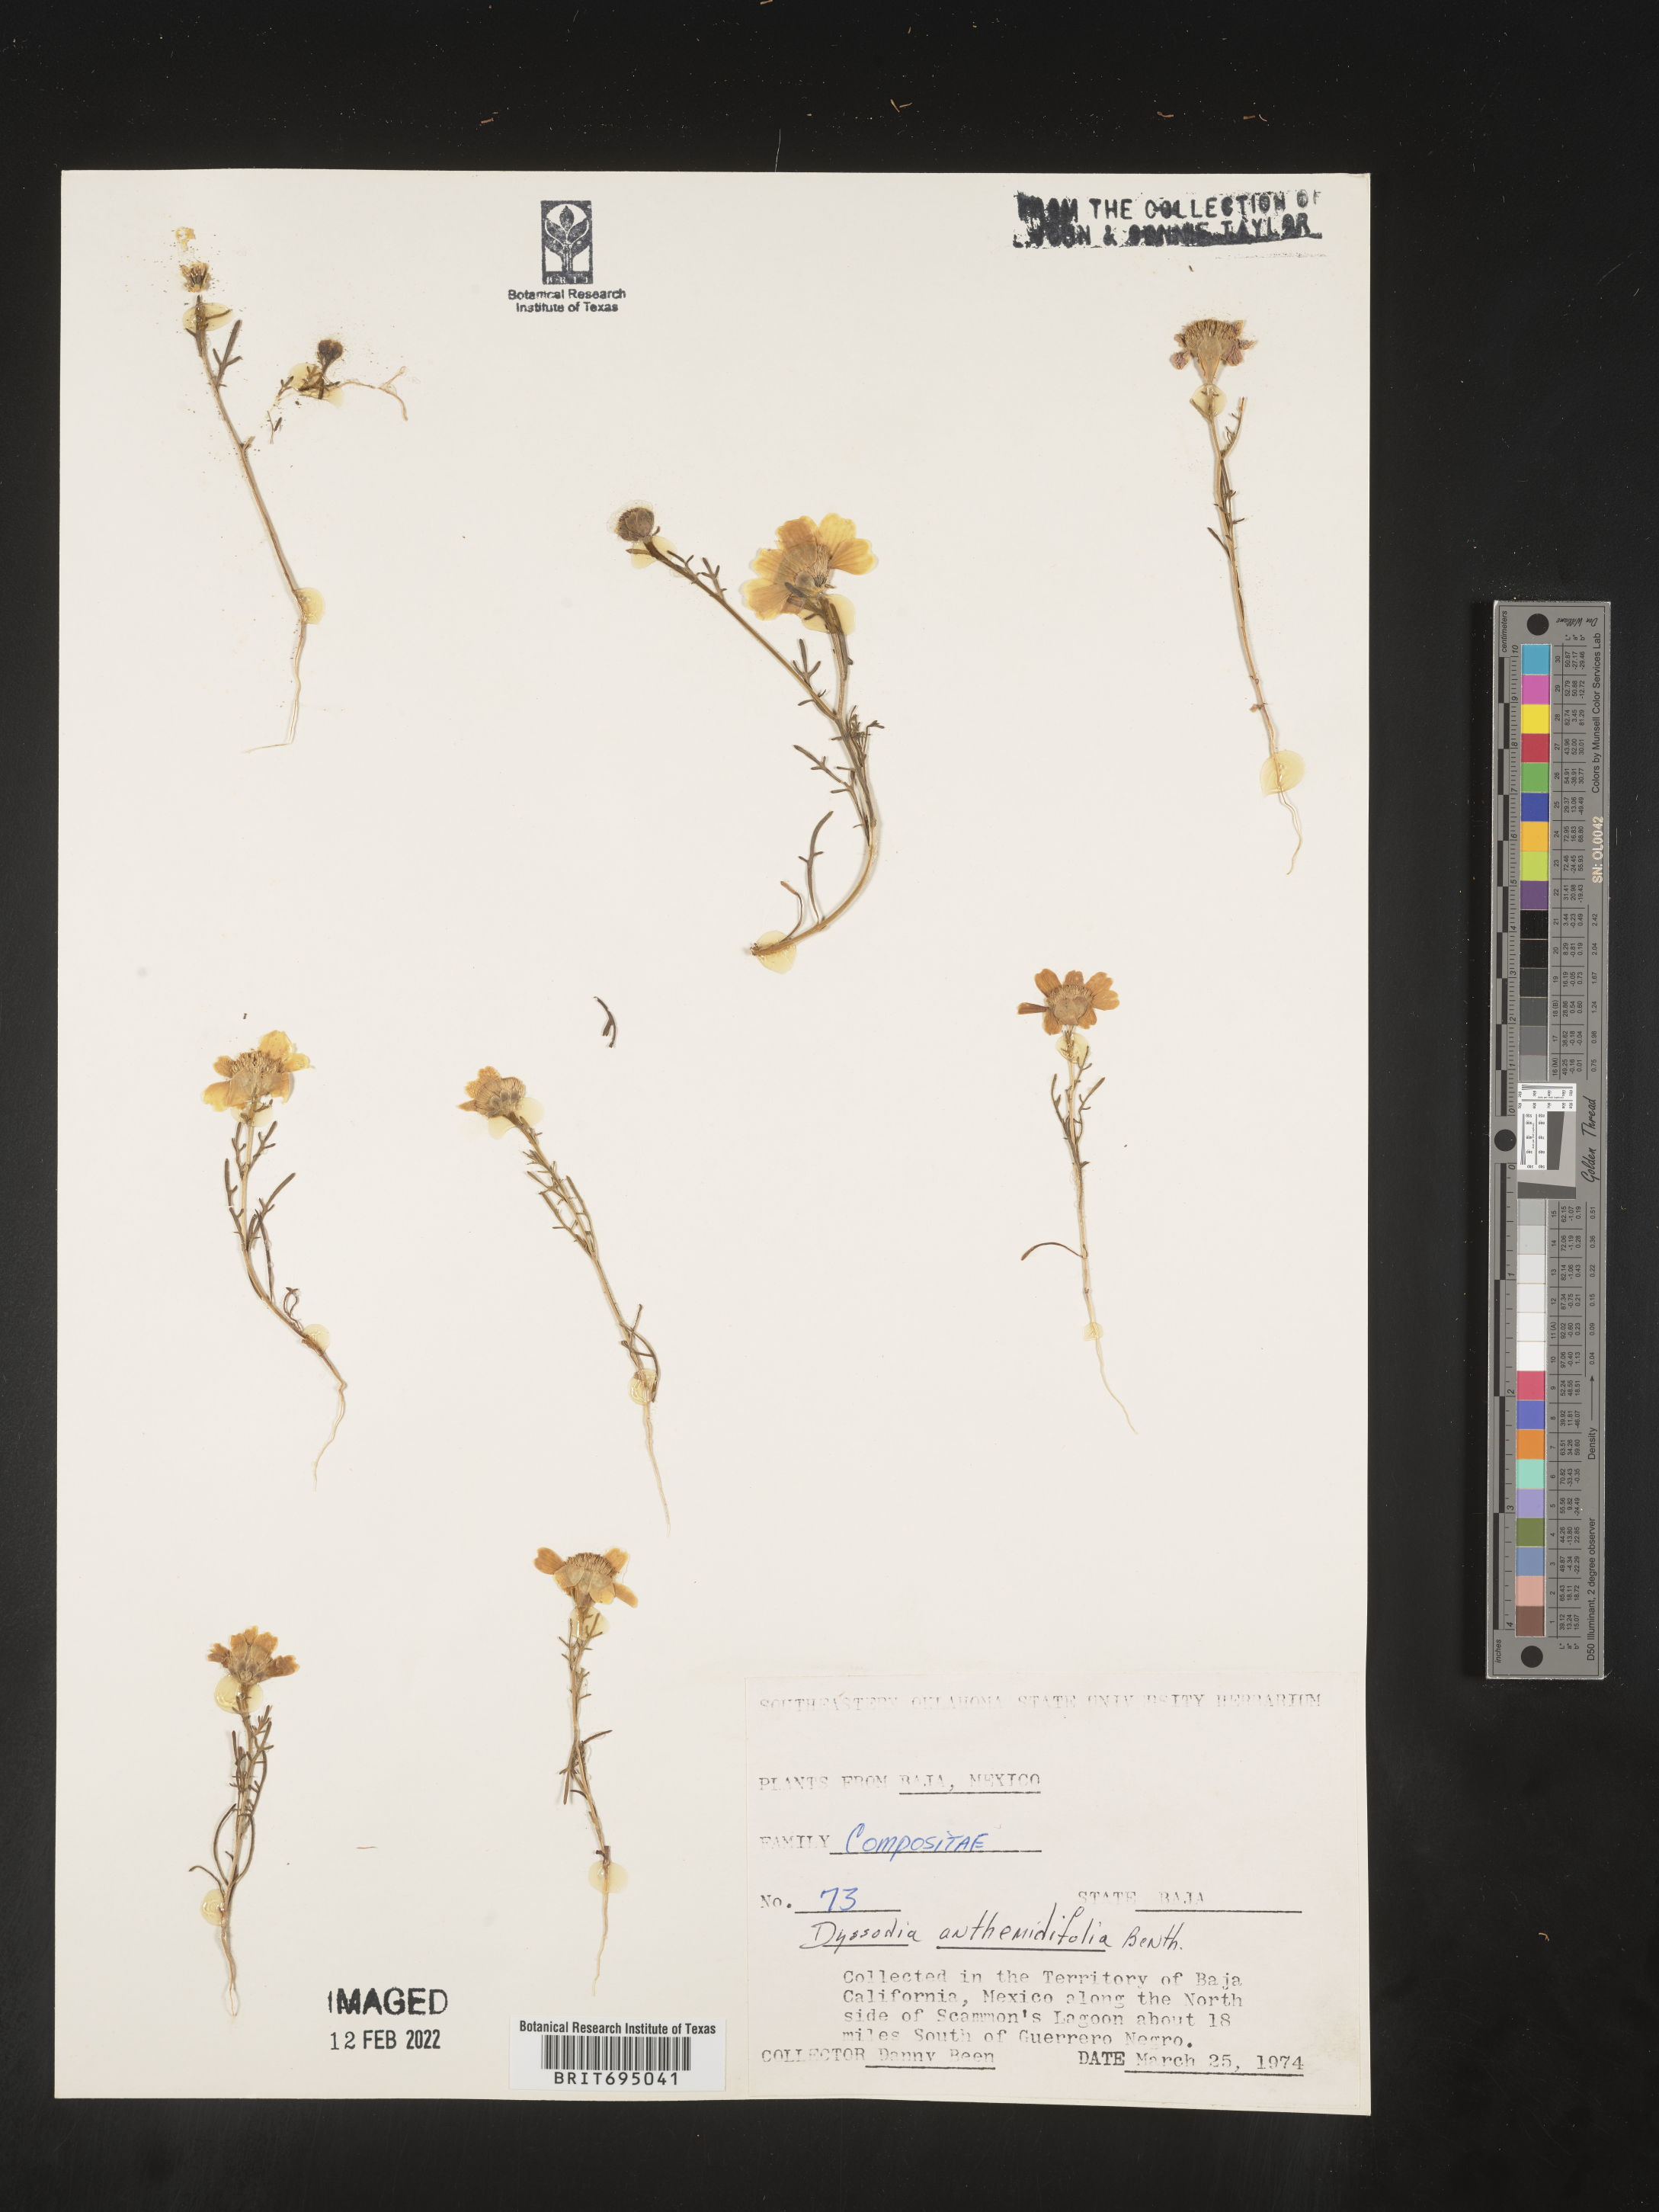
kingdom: Plantae
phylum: Tracheophyta
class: Magnoliopsida
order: Asterales
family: Asteraceae
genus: Boeberastrum
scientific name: Boeberastrum anthemidifolium
